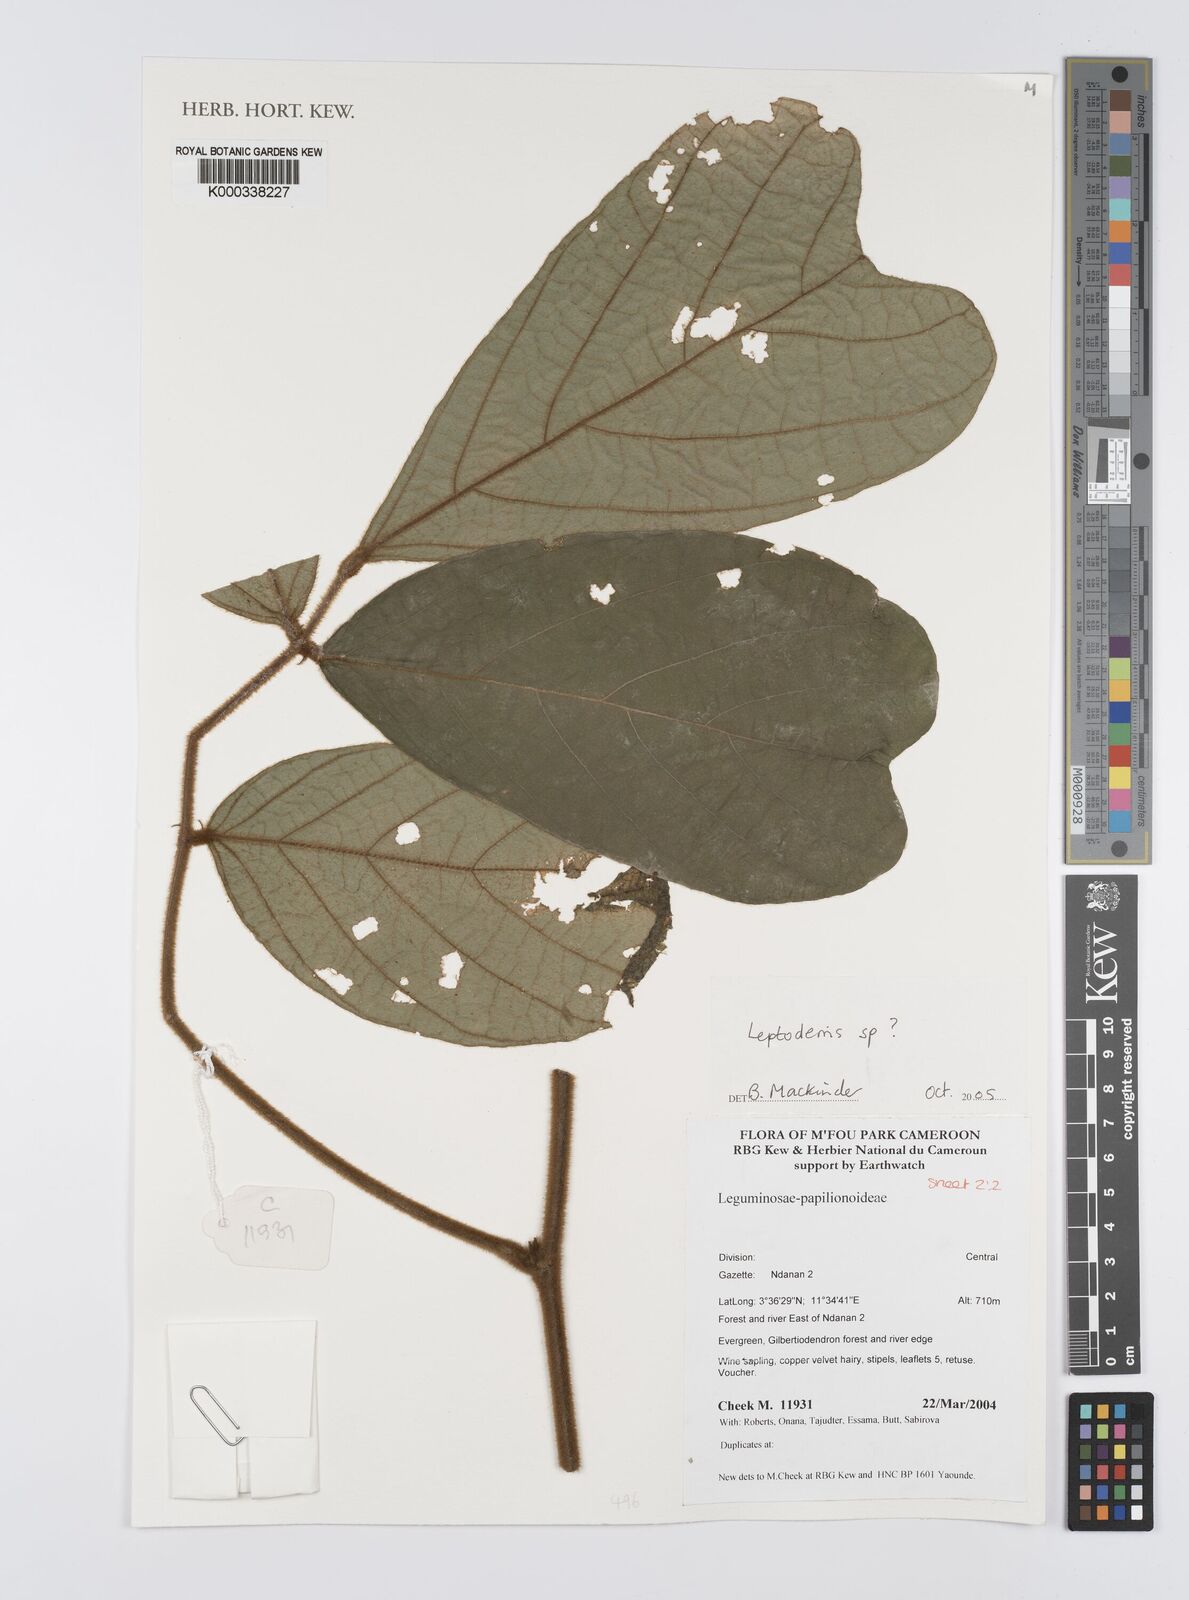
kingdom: Plantae
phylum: Tracheophyta
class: Magnoliopsida
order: Fabales
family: Fabaceae
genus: Leptoderris
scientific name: Leptoderris
